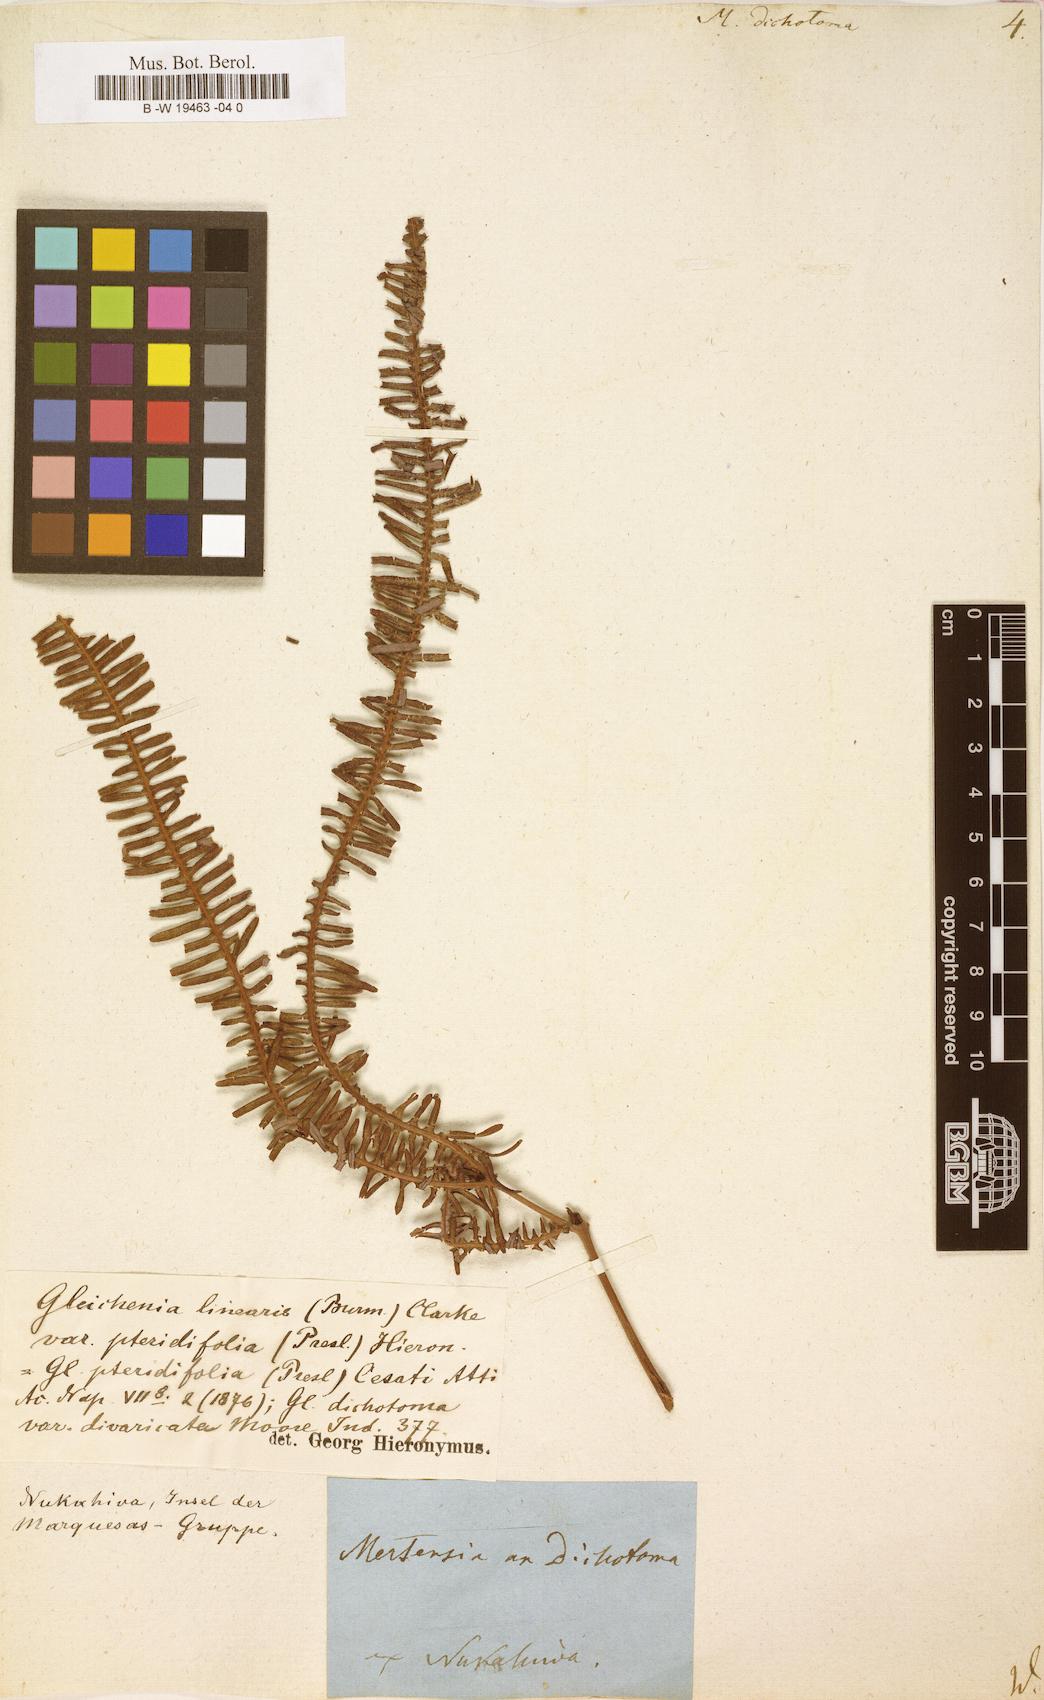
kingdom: Plantae
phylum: Tracheophyta
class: Polypodiopsida
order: Gleicheniales
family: Gleicheniaceae
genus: Dicranopteris
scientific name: Dicranopteris pedata
